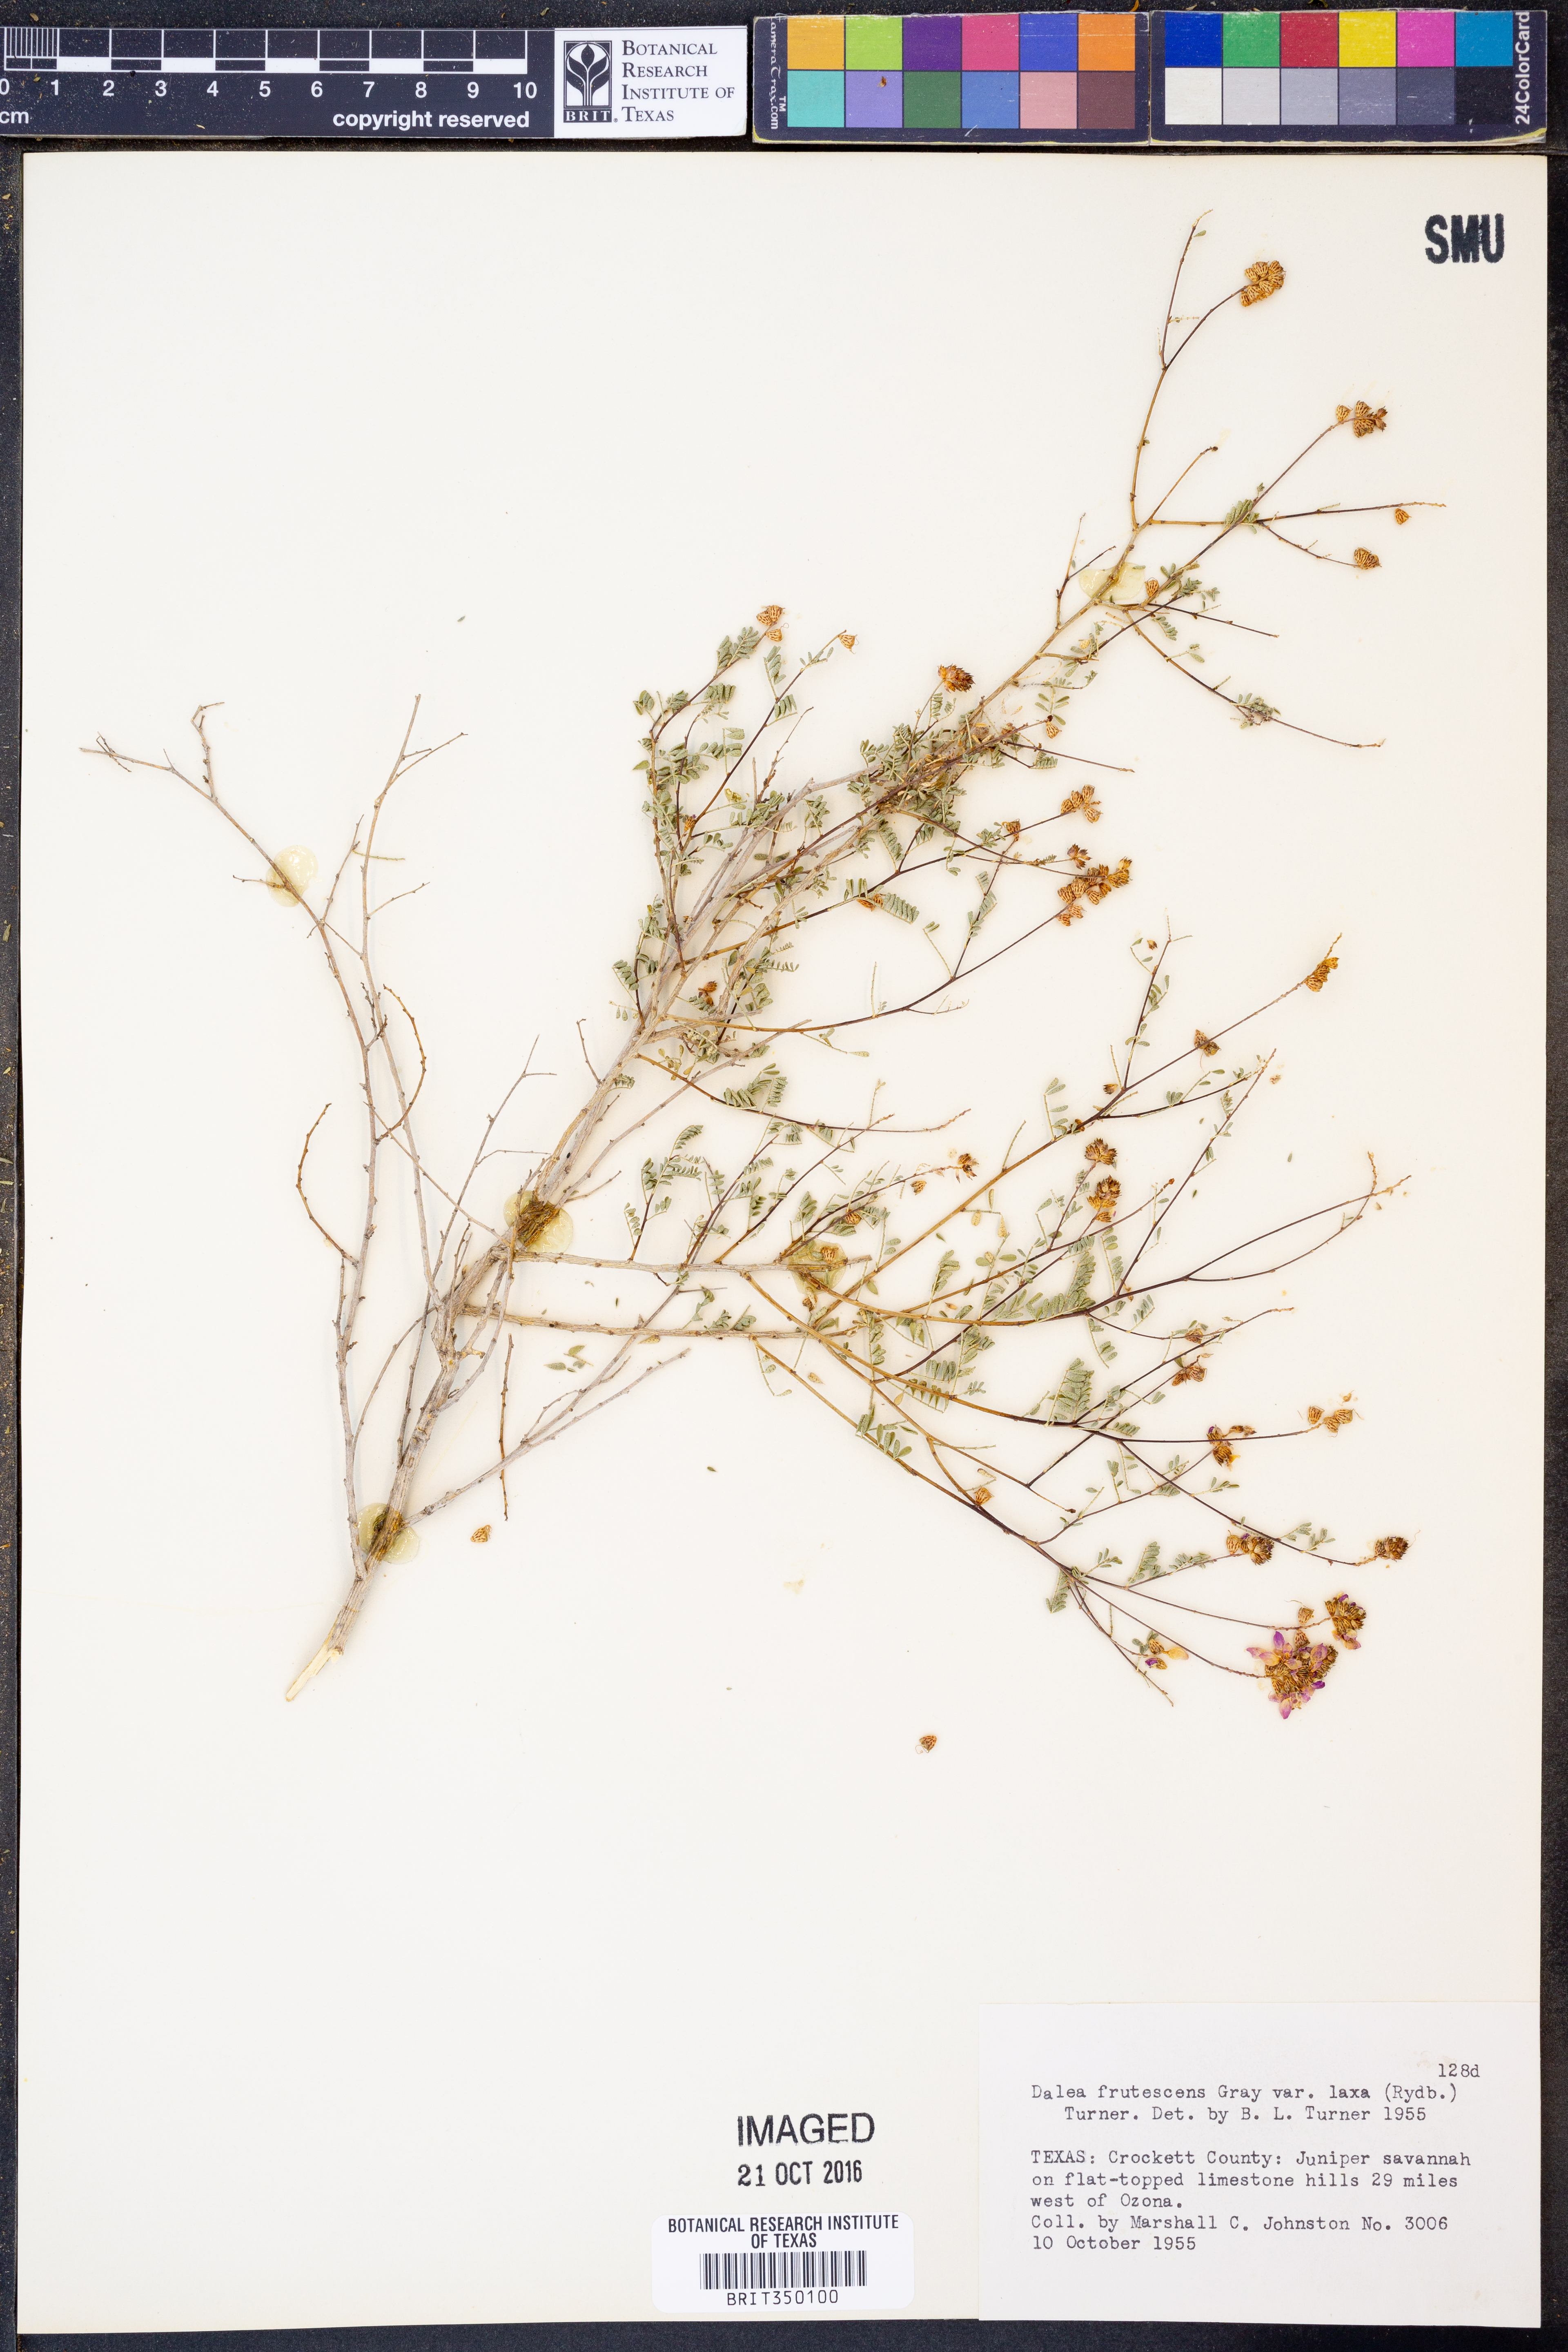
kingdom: Plantae
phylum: Tracheophyta
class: Magnoliopsida
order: Fabales
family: Fabaceae
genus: Dalea
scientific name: Dalea frutescens
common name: Black dalea
